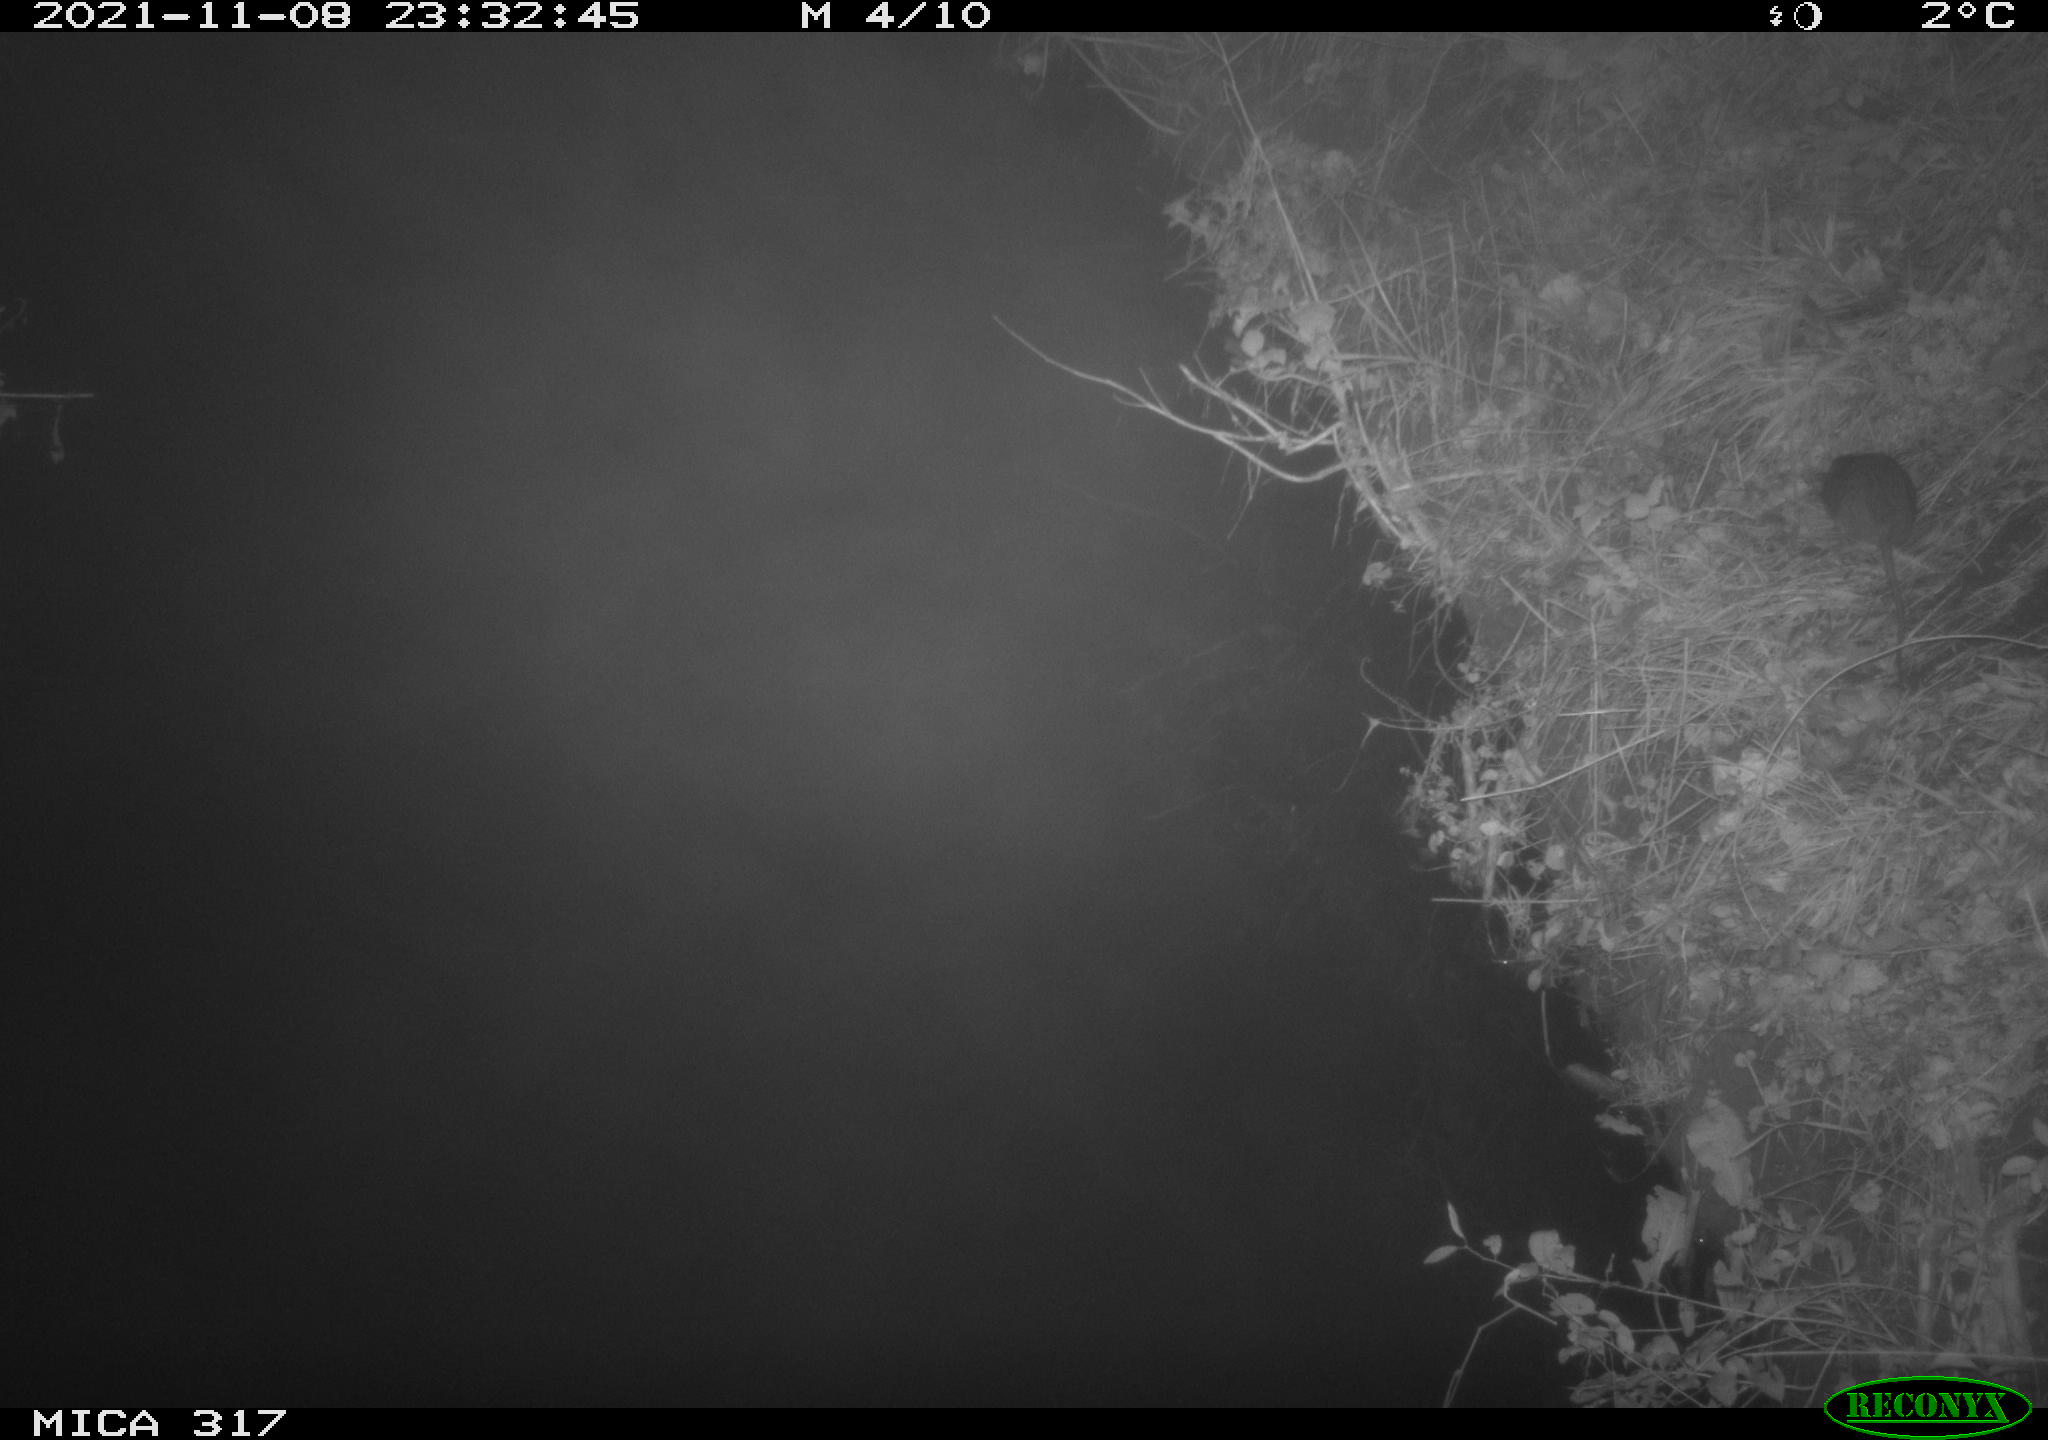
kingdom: Animalia
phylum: Chordata
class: Mammalia
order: Rodentia
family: Muridae
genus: Rattus
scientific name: Rattus norvegicus
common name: Brown rat
